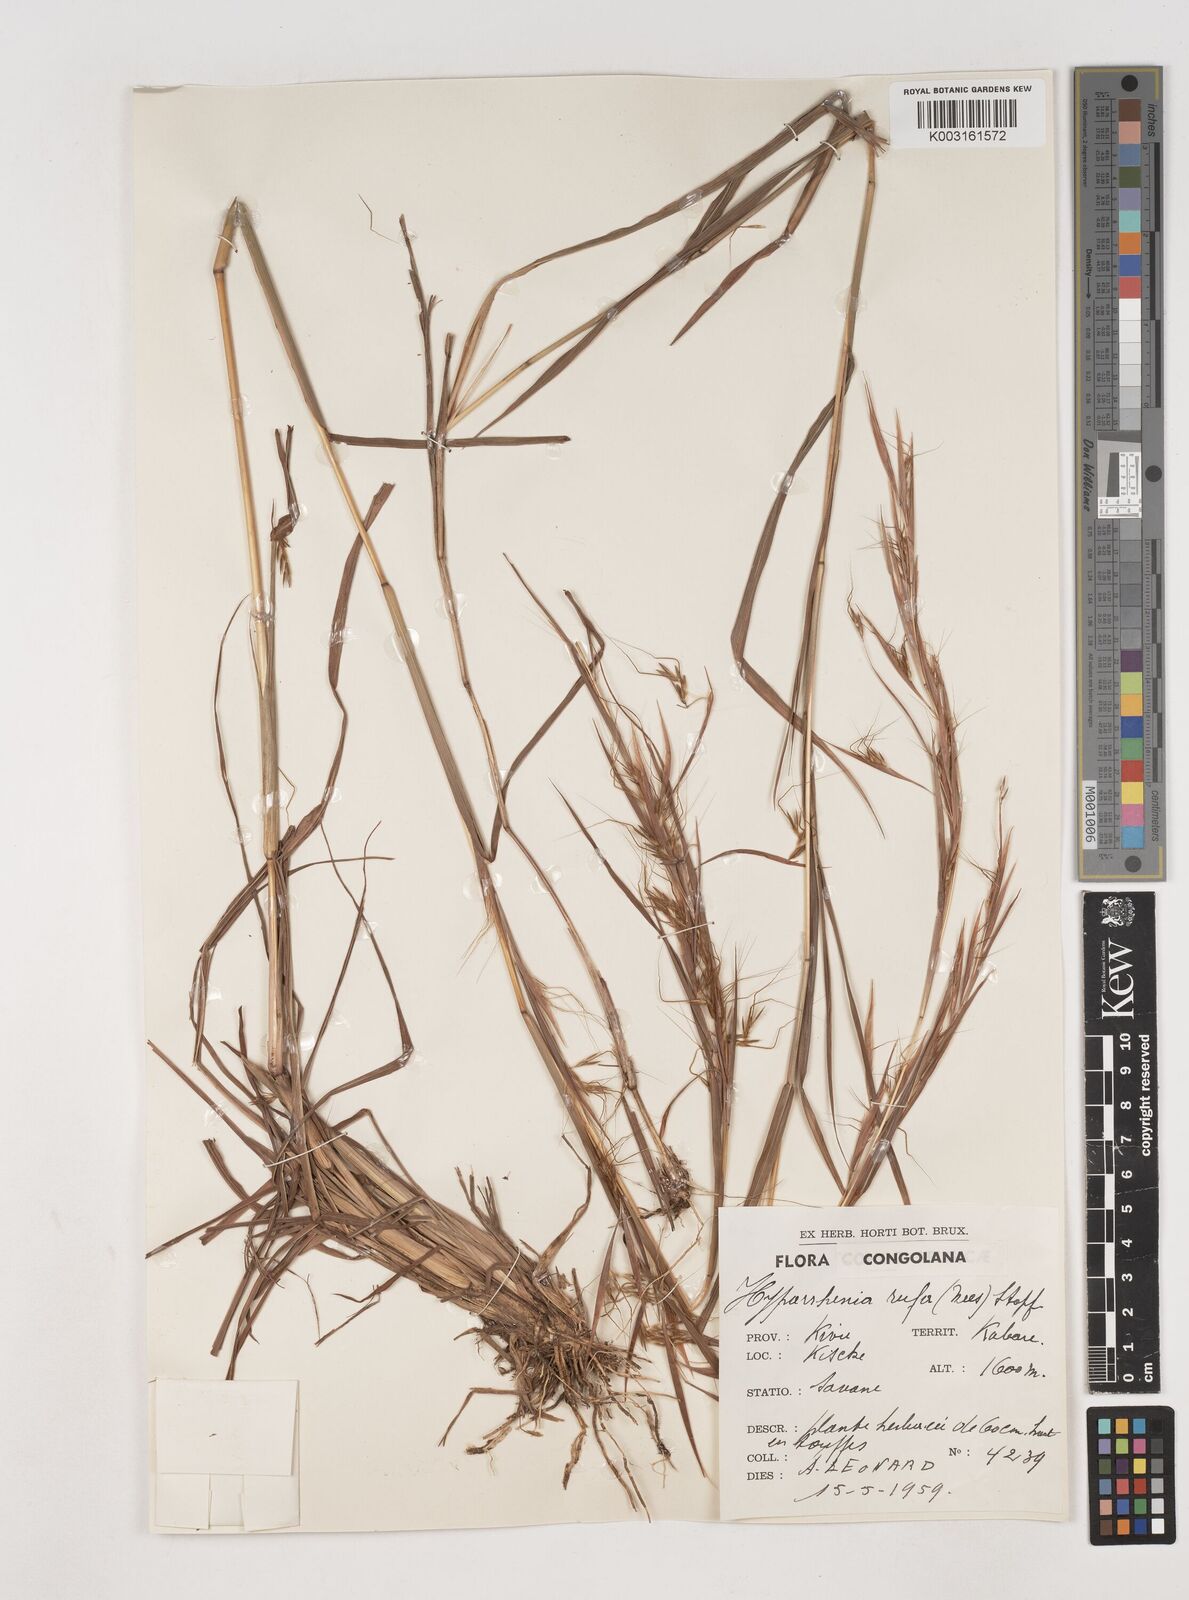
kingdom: Plantae
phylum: Tracheophyta
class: Liliopsida
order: Poales
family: Poaceae
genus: Hyparrhenia
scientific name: Hyparrhenia rufa
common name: Jaraguagrass
